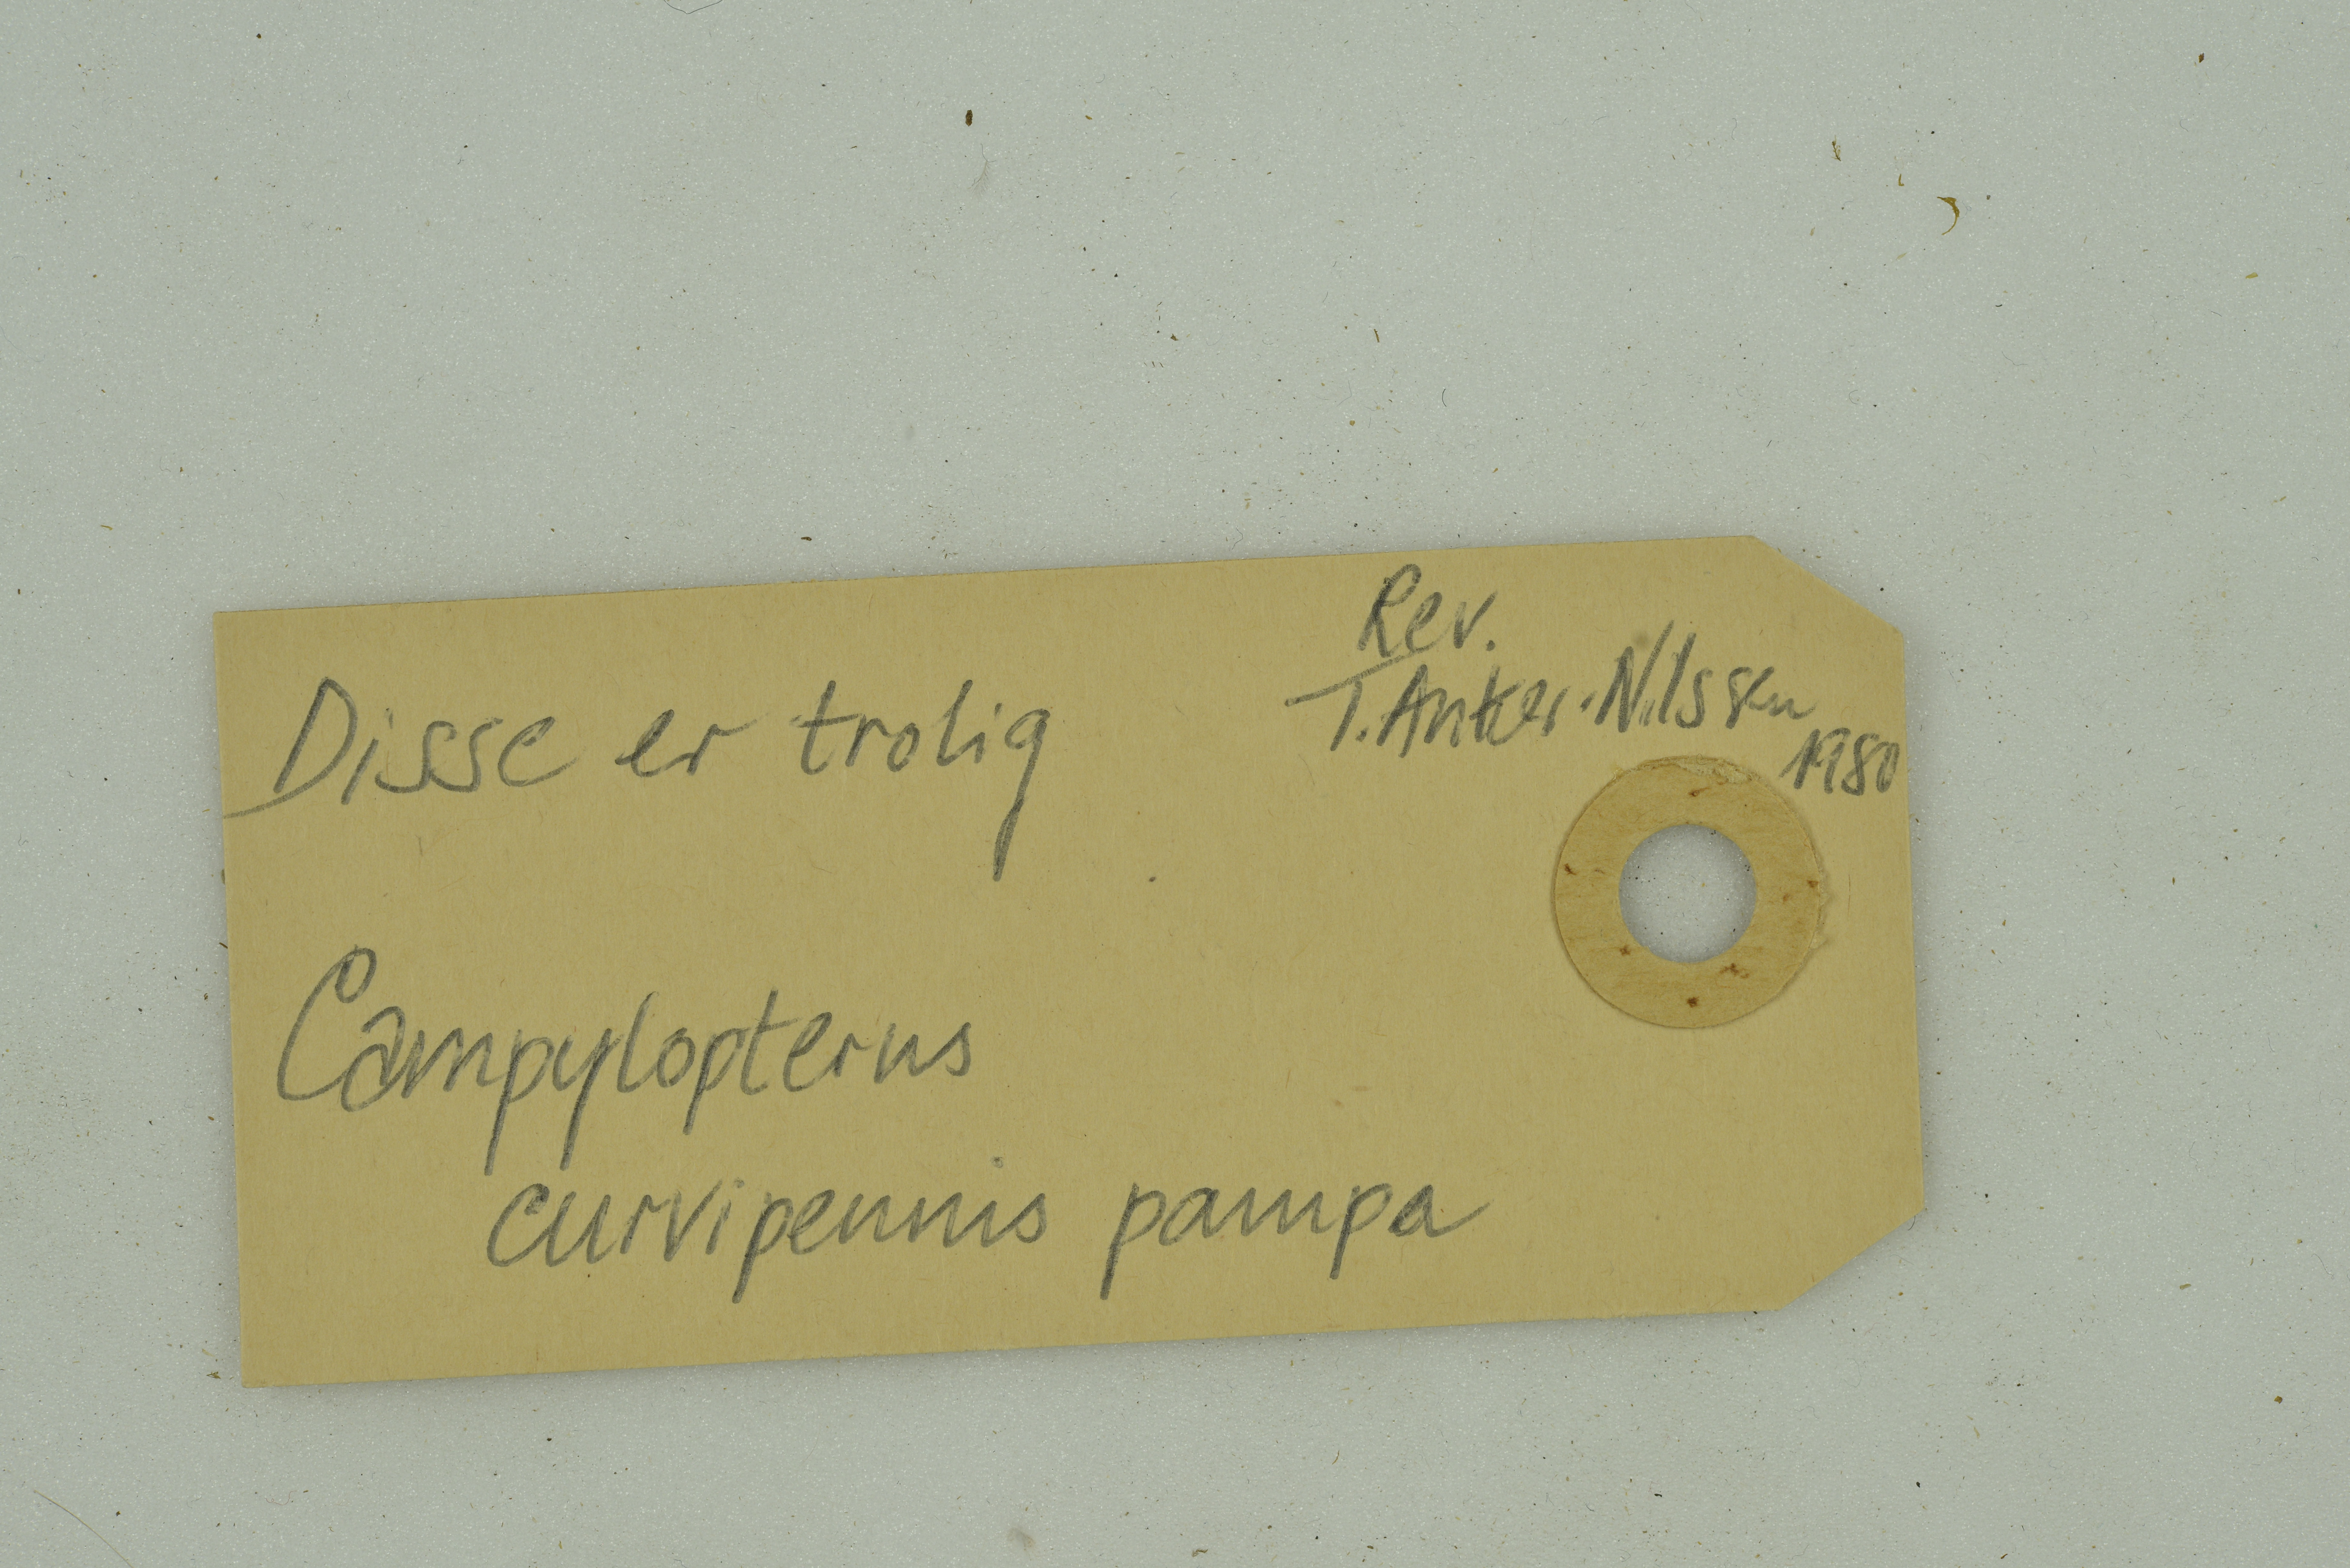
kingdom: Animalia
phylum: Chordata
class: Aves
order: Apodiformes
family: Trochilidae
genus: Pampa
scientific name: Pampa curvipennis
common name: Curve-winged sabrewing
